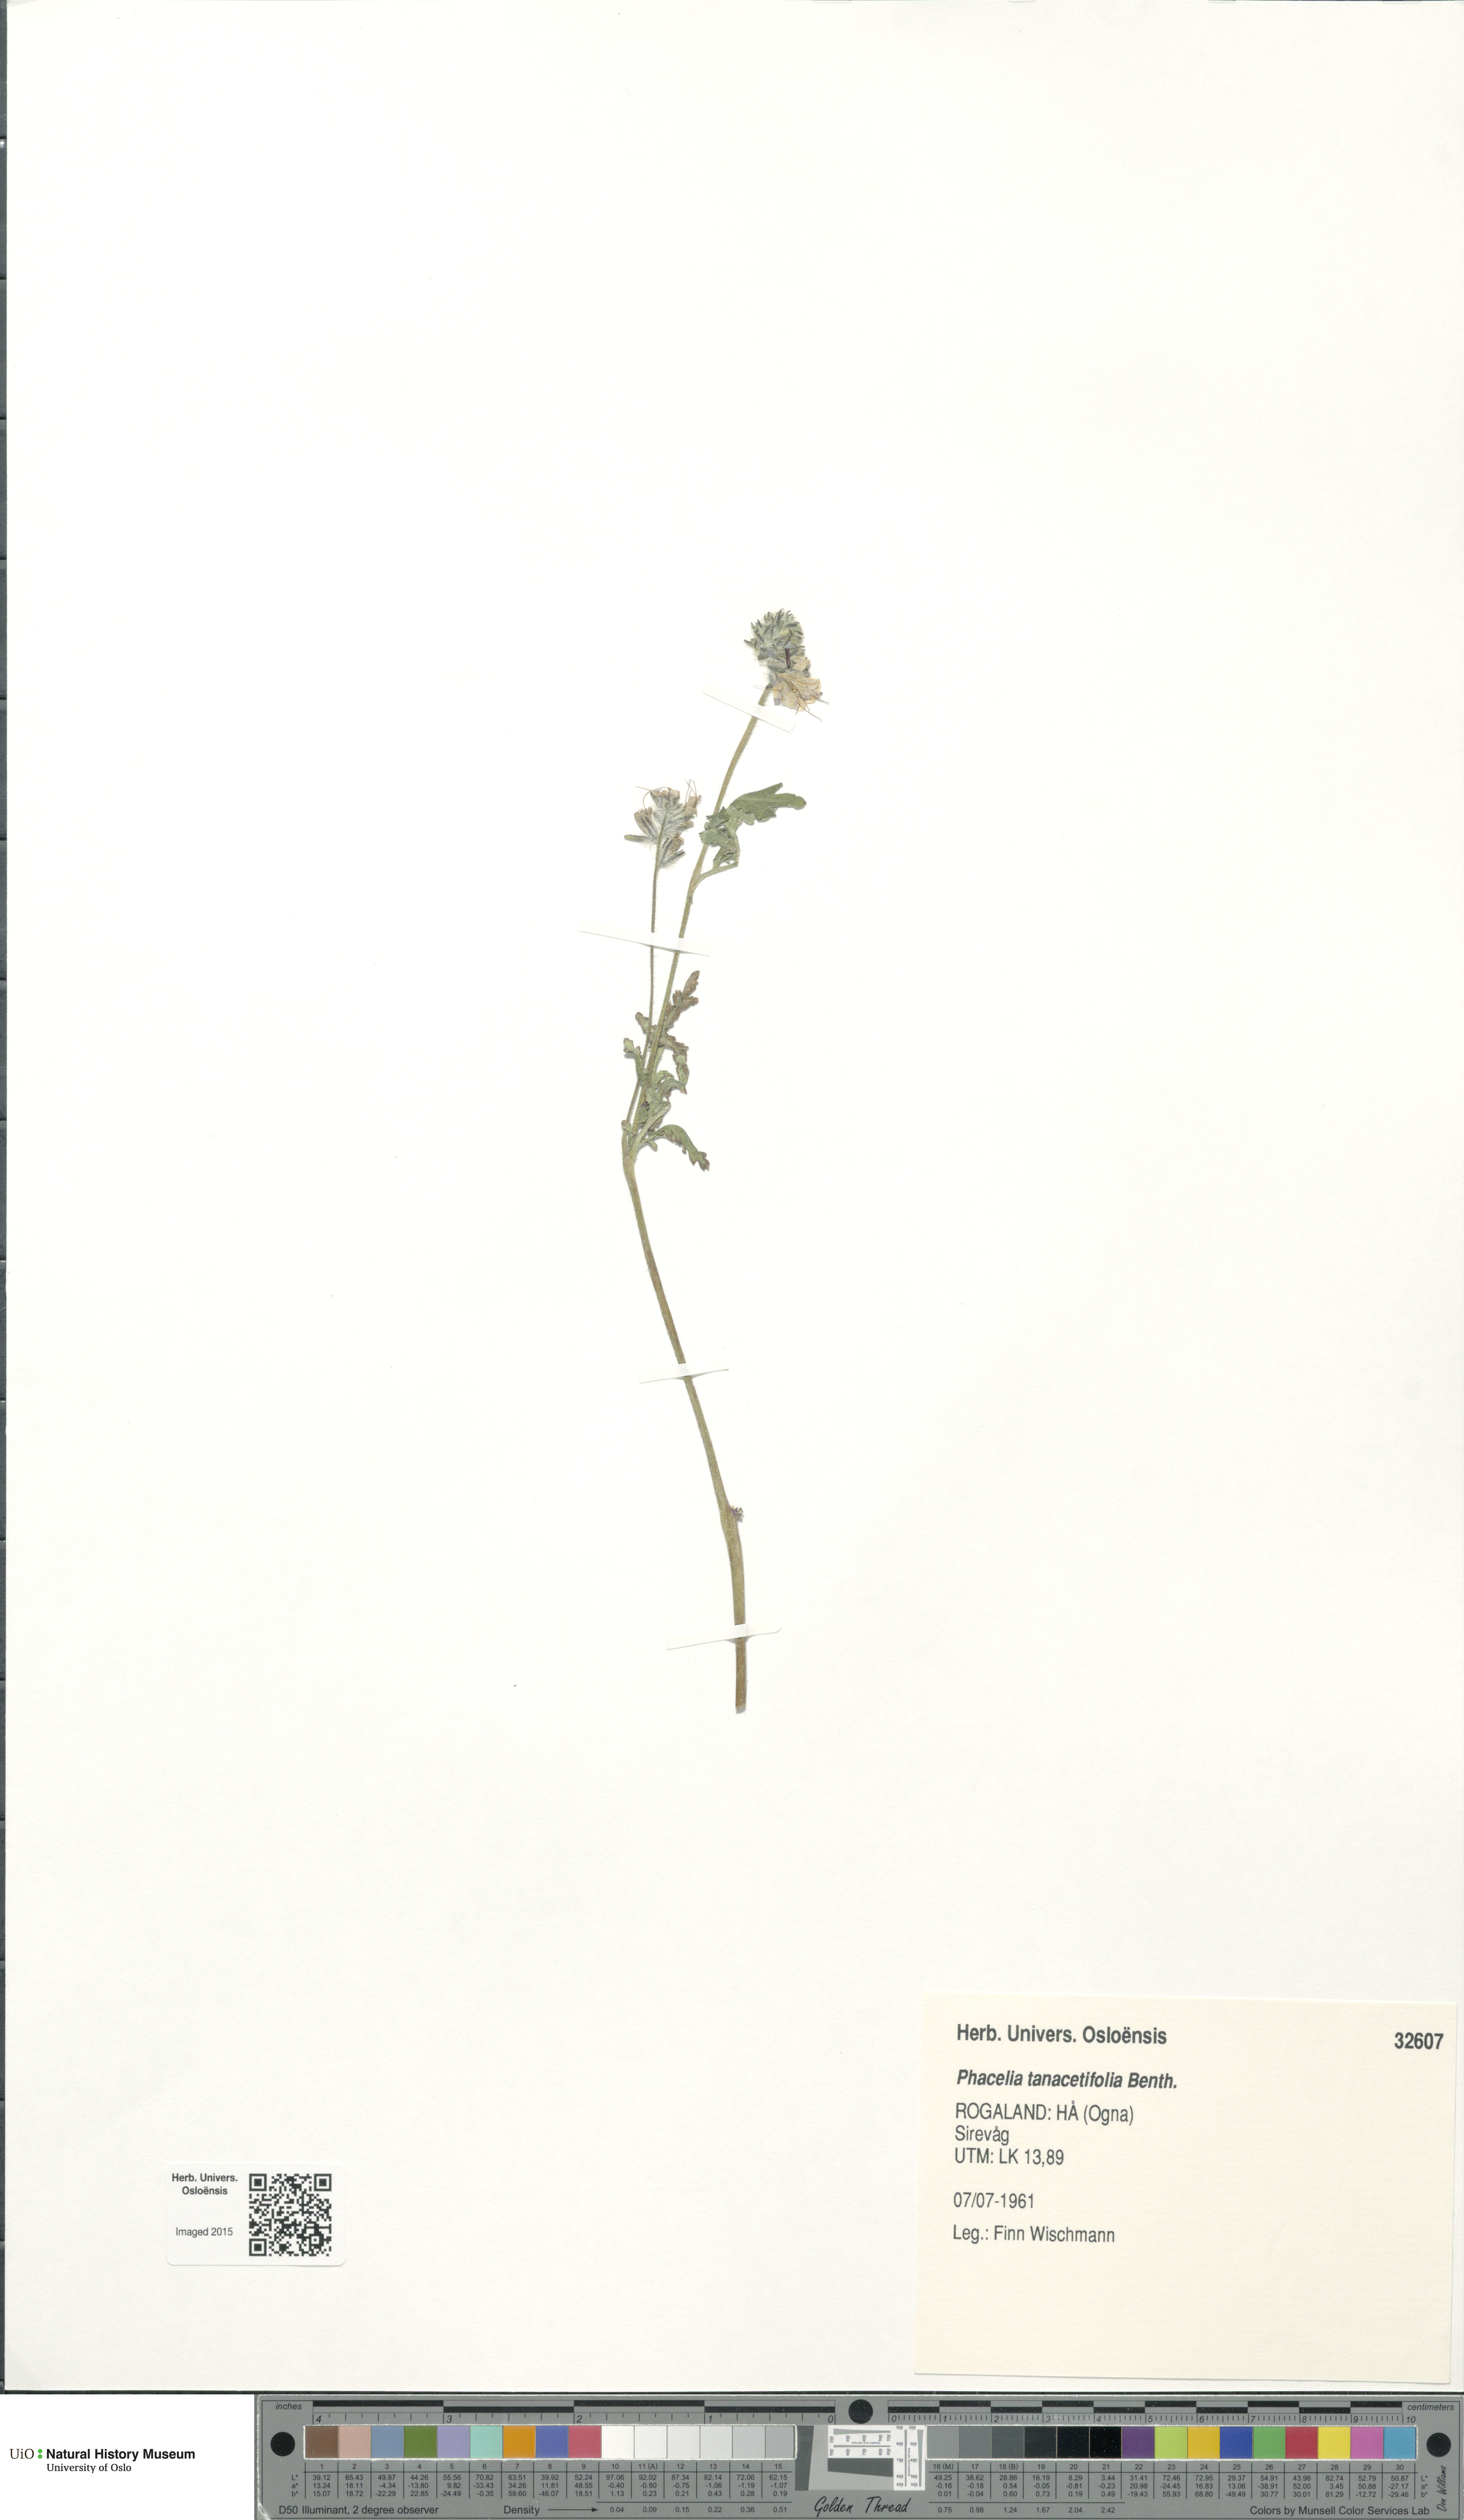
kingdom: Plantae
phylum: Tracheophyta
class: Magnoliopsida
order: Boraginales
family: Hydrophyllaceae
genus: Phacelia
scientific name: Phacelia tanacetifolia
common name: Phacelia
